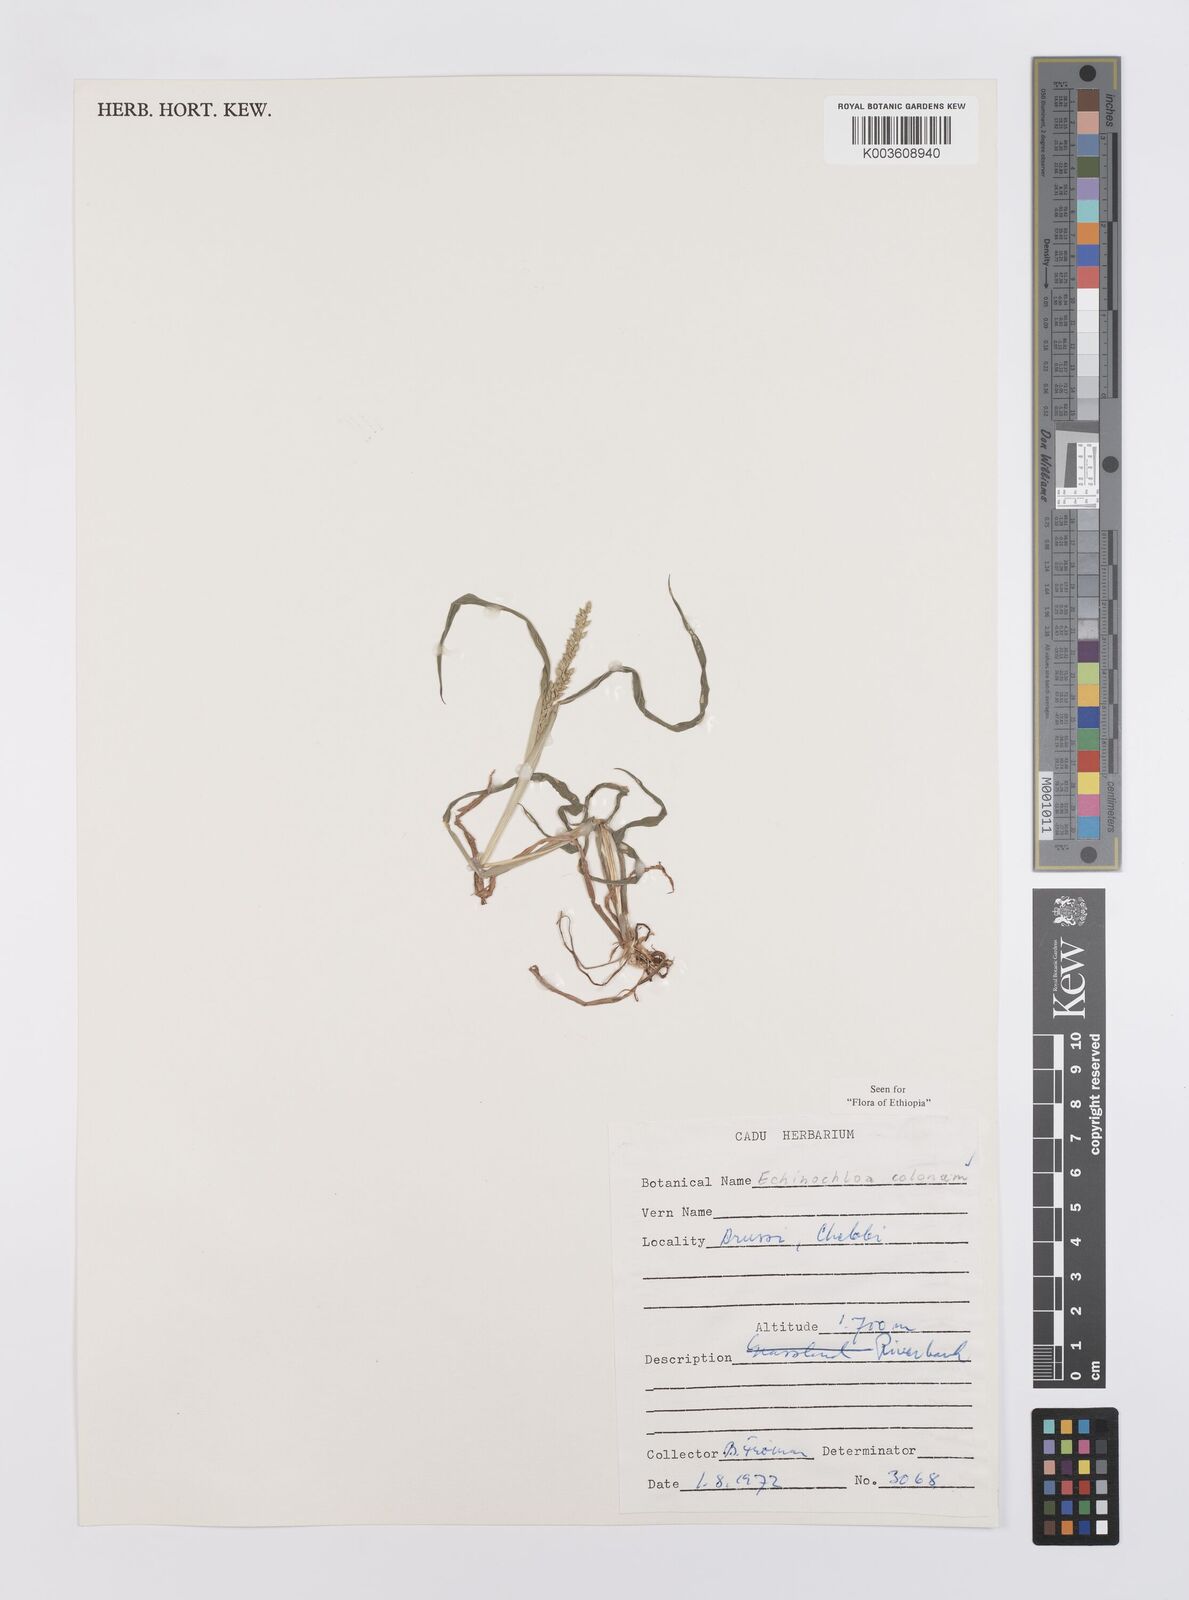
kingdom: Plantae
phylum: Tracheophyta
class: Liliopsida
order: Poales
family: Poaceae
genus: Echinochloa
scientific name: Echinochloa colonum
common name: Jungle rice
